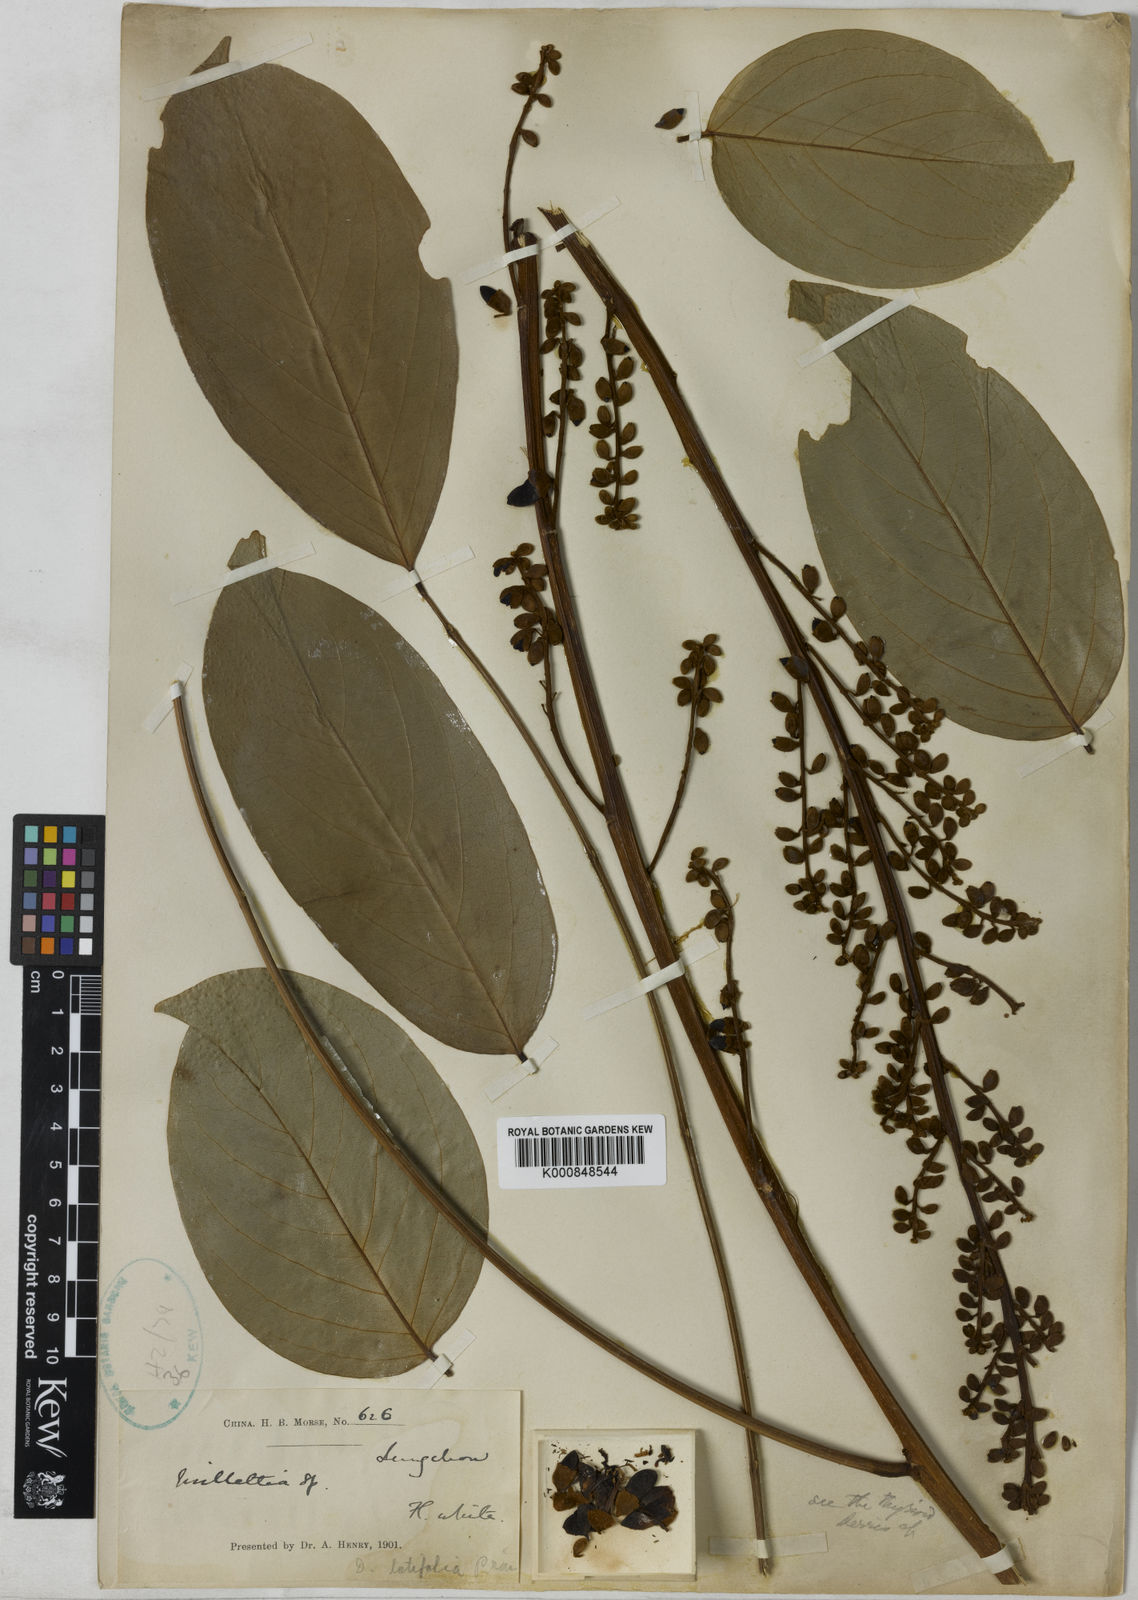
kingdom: Plantae
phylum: Tracheophyta
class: Magnoliopsida
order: Fabales
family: Fabaceae
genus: Aganope
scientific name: Aganope heptaphylla
